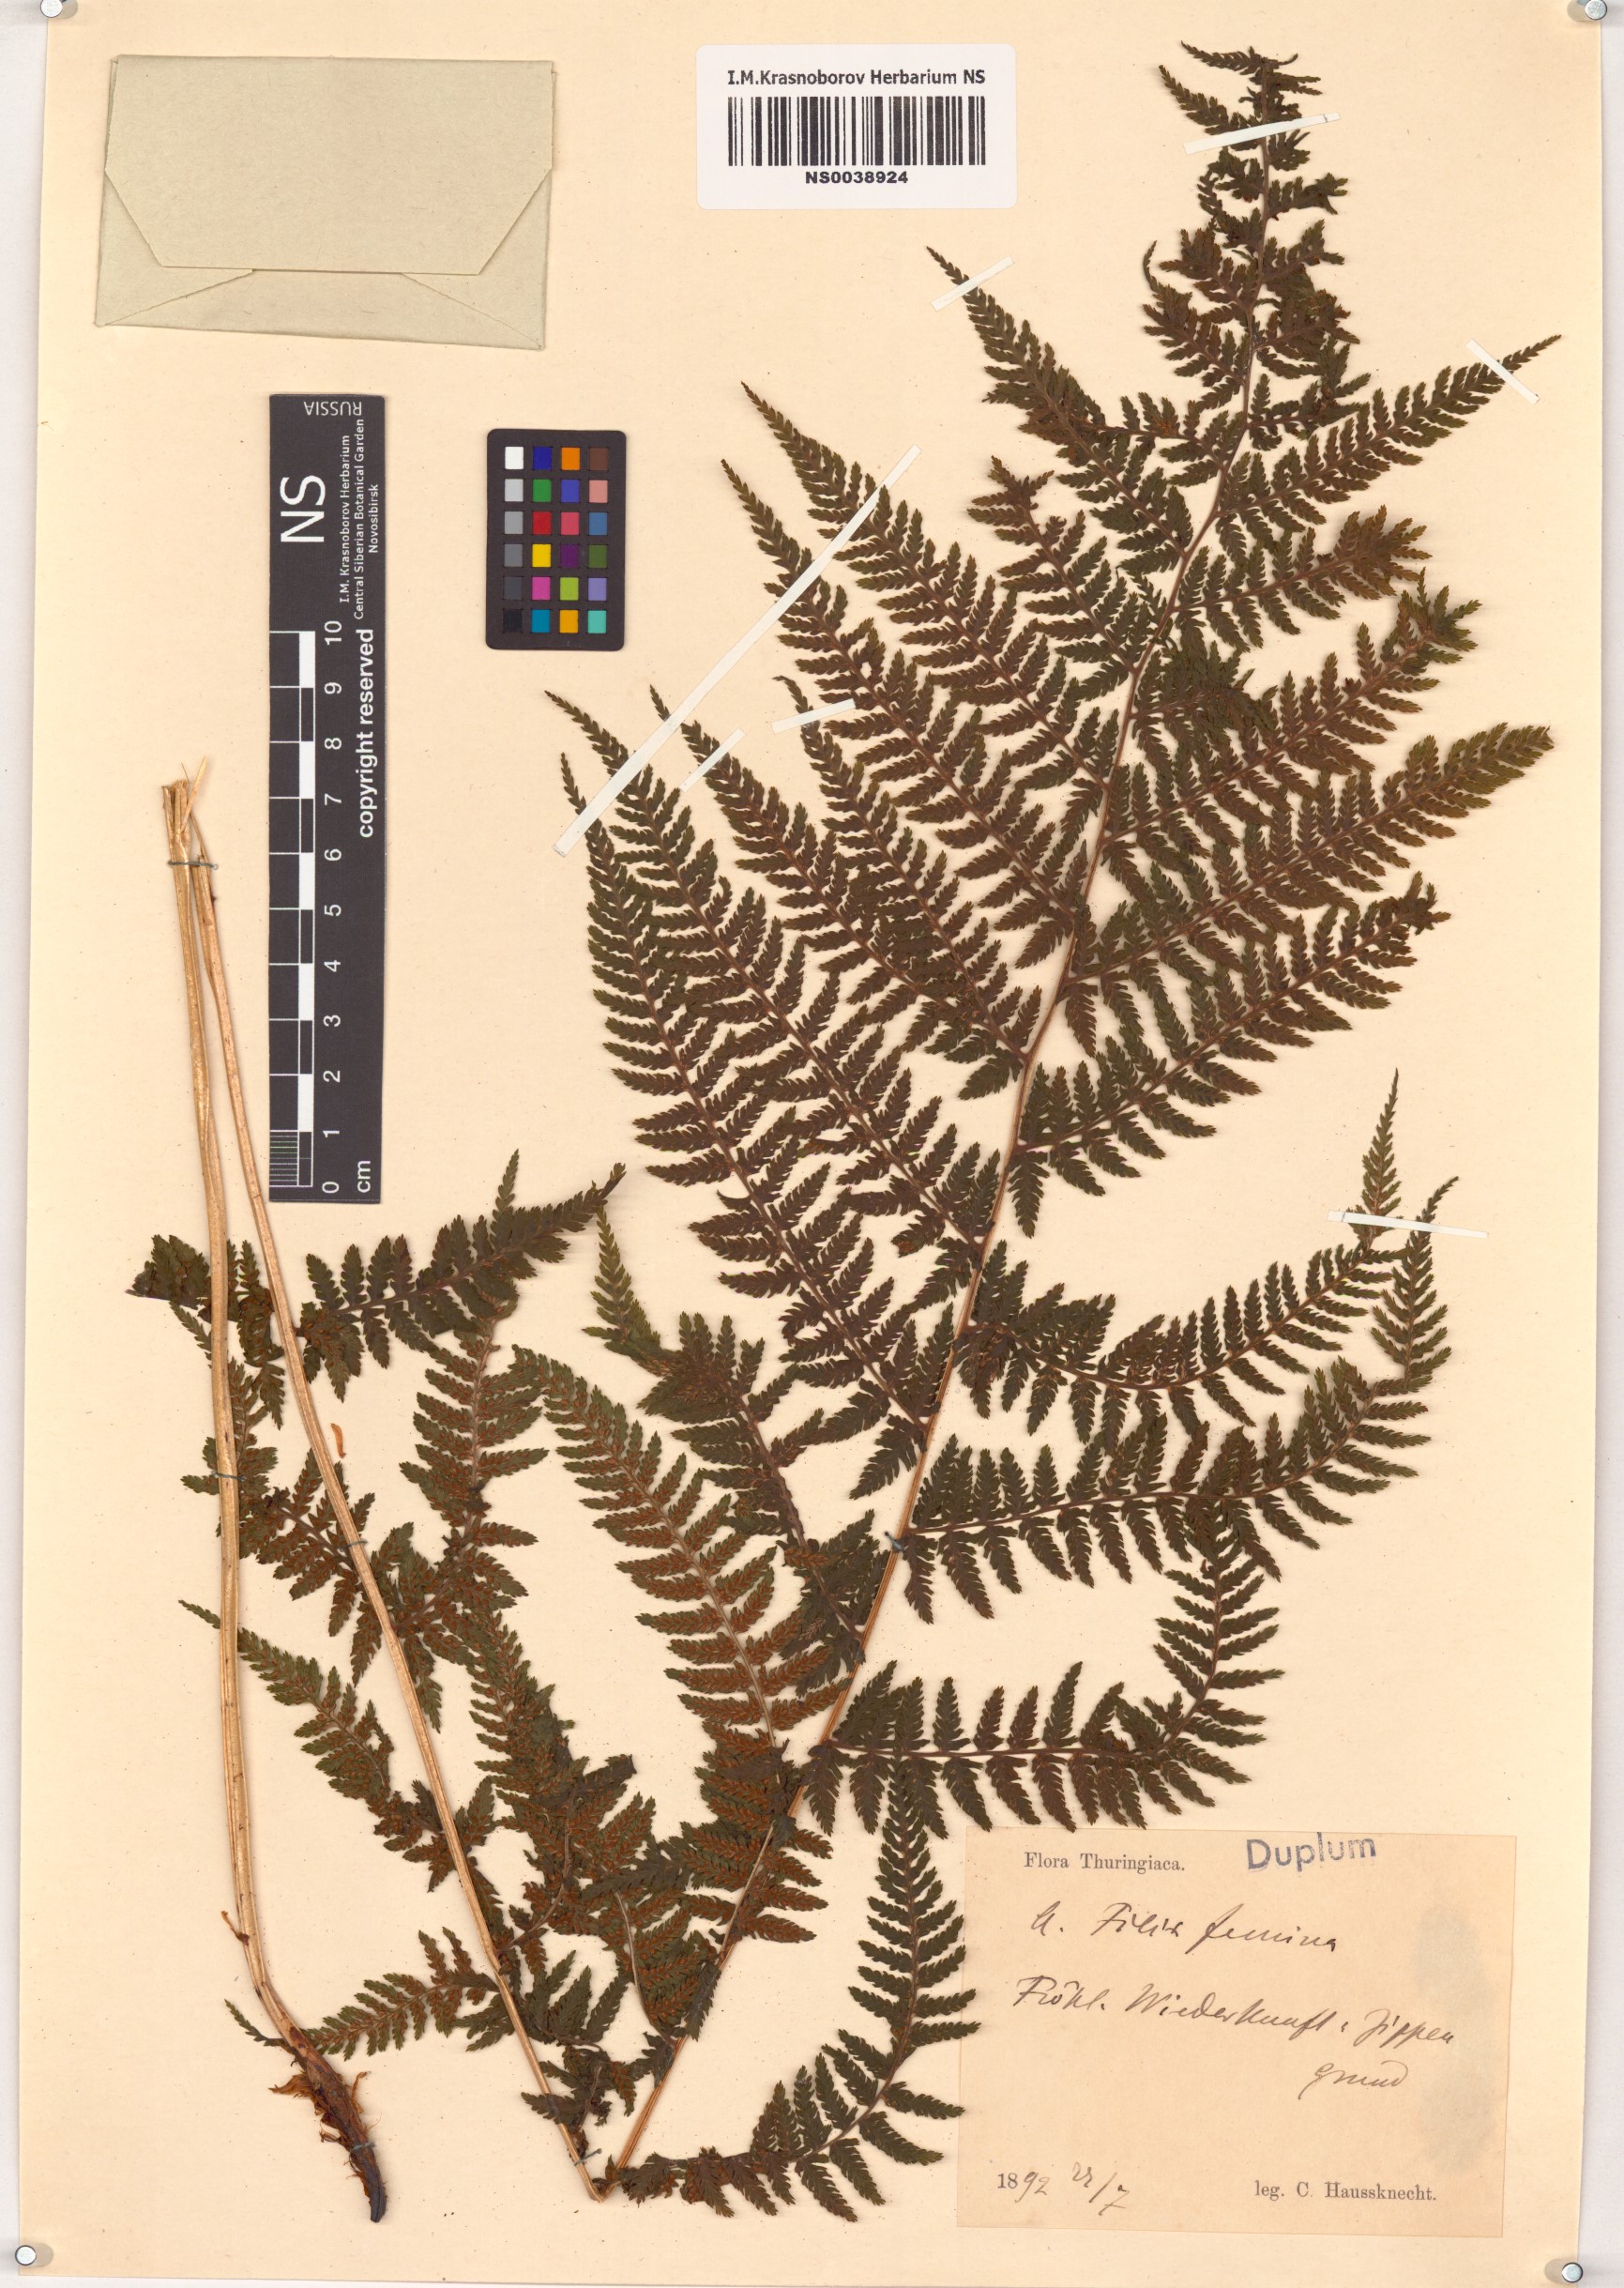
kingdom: Plantae
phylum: Tracheophyta
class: Polypodiopsida
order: Polypodiales
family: Athyriaceae
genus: Athyrium
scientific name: Athyrium filix-femina
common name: Lady fern
